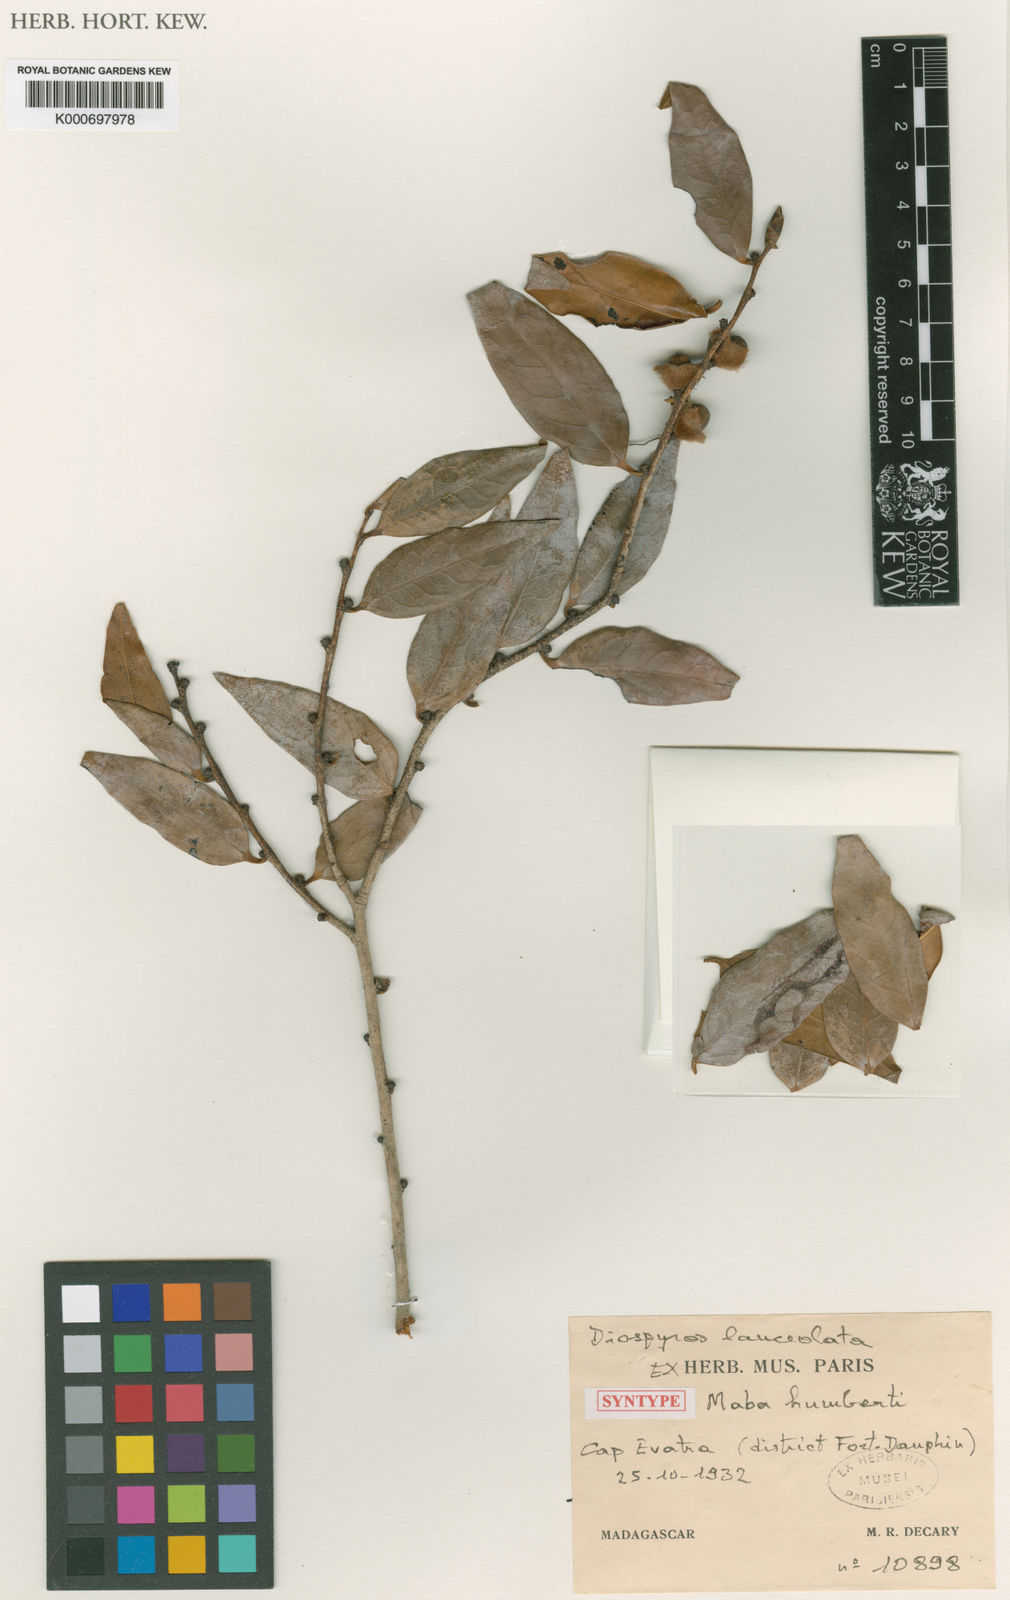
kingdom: Plantae
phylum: Tracheophyta
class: Magnoliopsida
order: Ericales
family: Ebenaceae
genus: Diospyros
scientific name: Diospyros lanceolata
